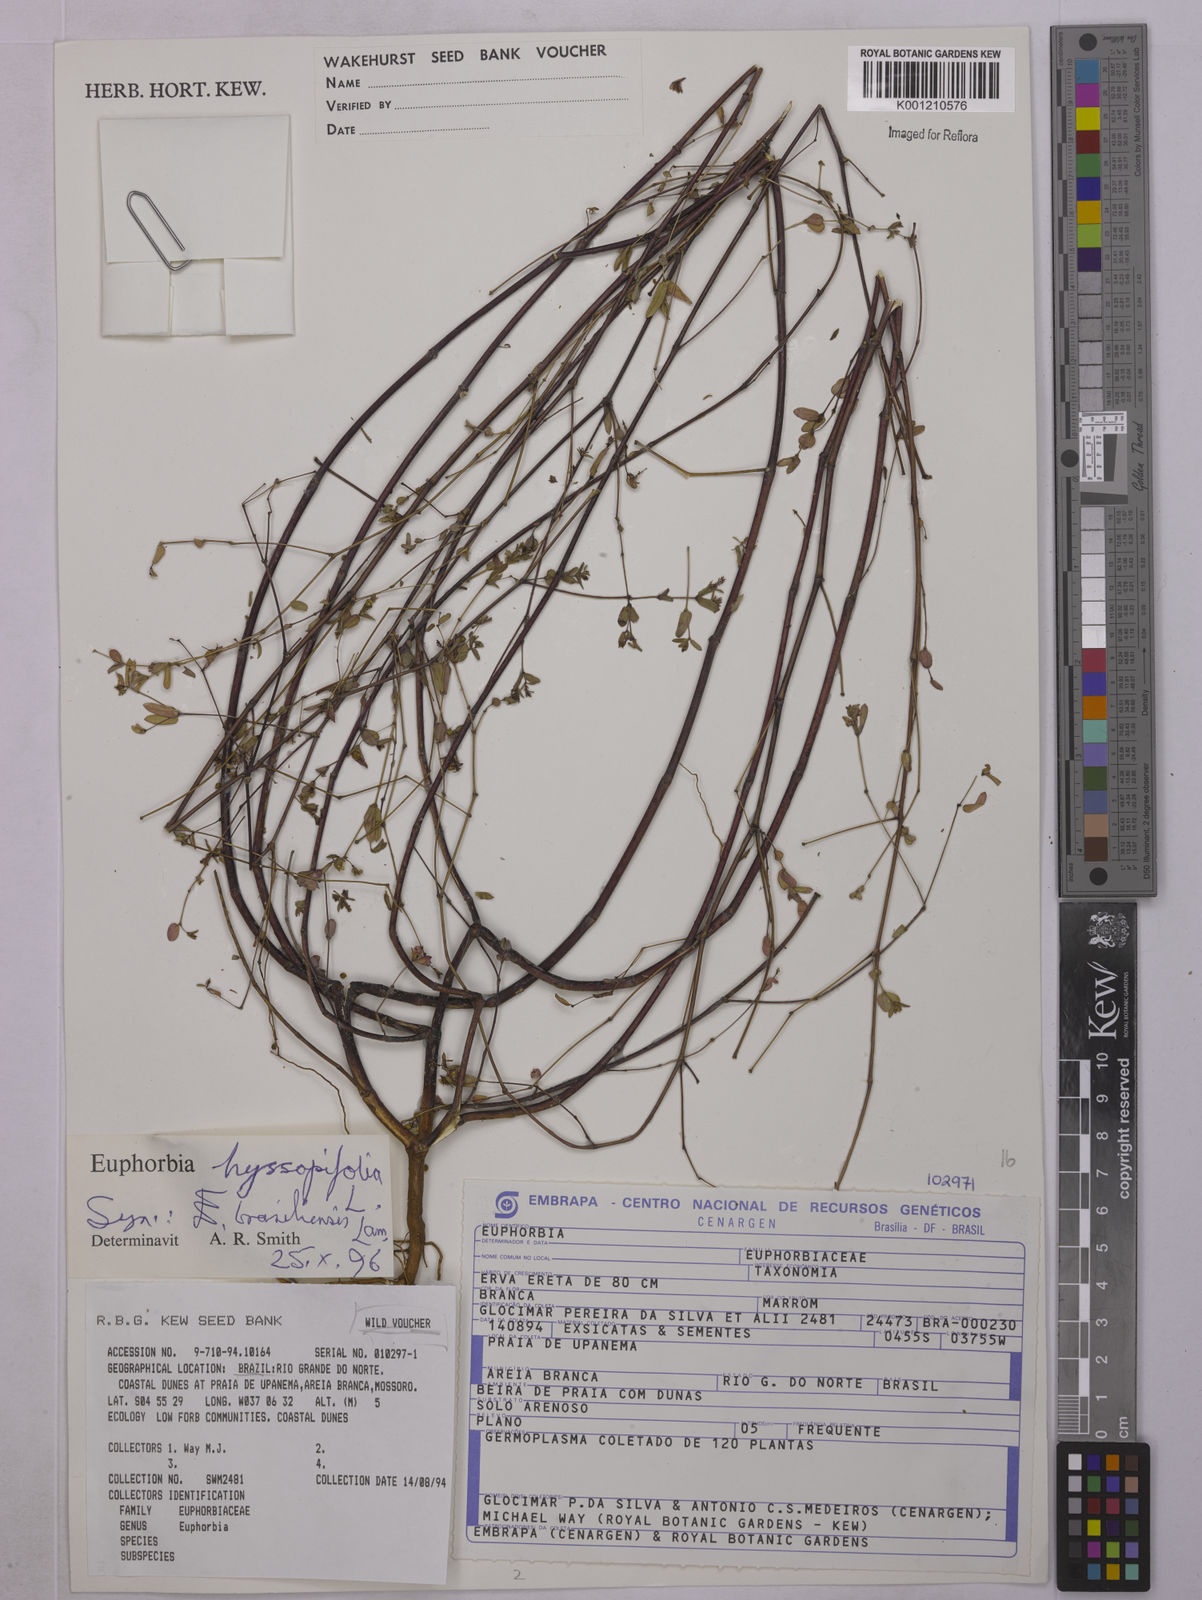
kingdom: Plantae
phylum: Tracheophyta
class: Magnoliopsida
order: Malpighiales
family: Euphorbiaceae
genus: Euphorbia
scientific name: Euphorbia hyssopifolia
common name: Hyssopleaf sandmat
